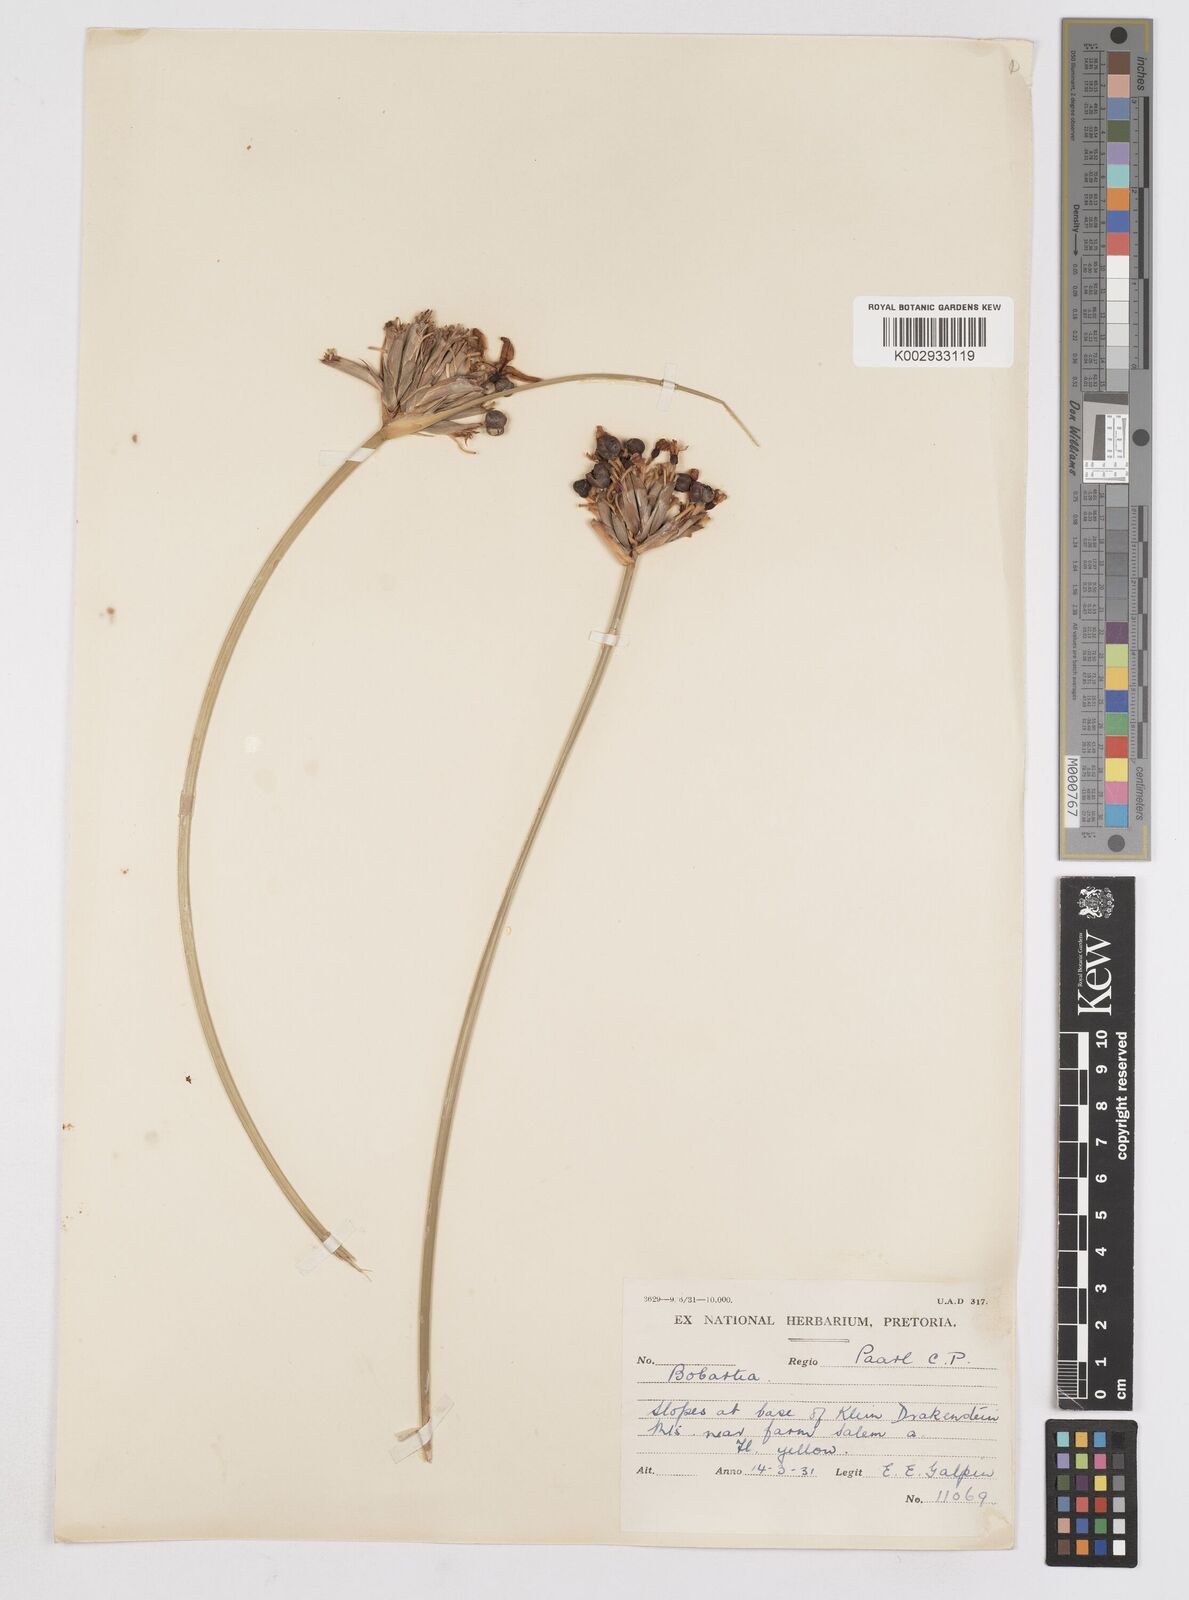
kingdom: Plantae
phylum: Tracheophyta
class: Liliopsida
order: Asparagales
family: Iridaceae
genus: Bobartia
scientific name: Bobartia indica
